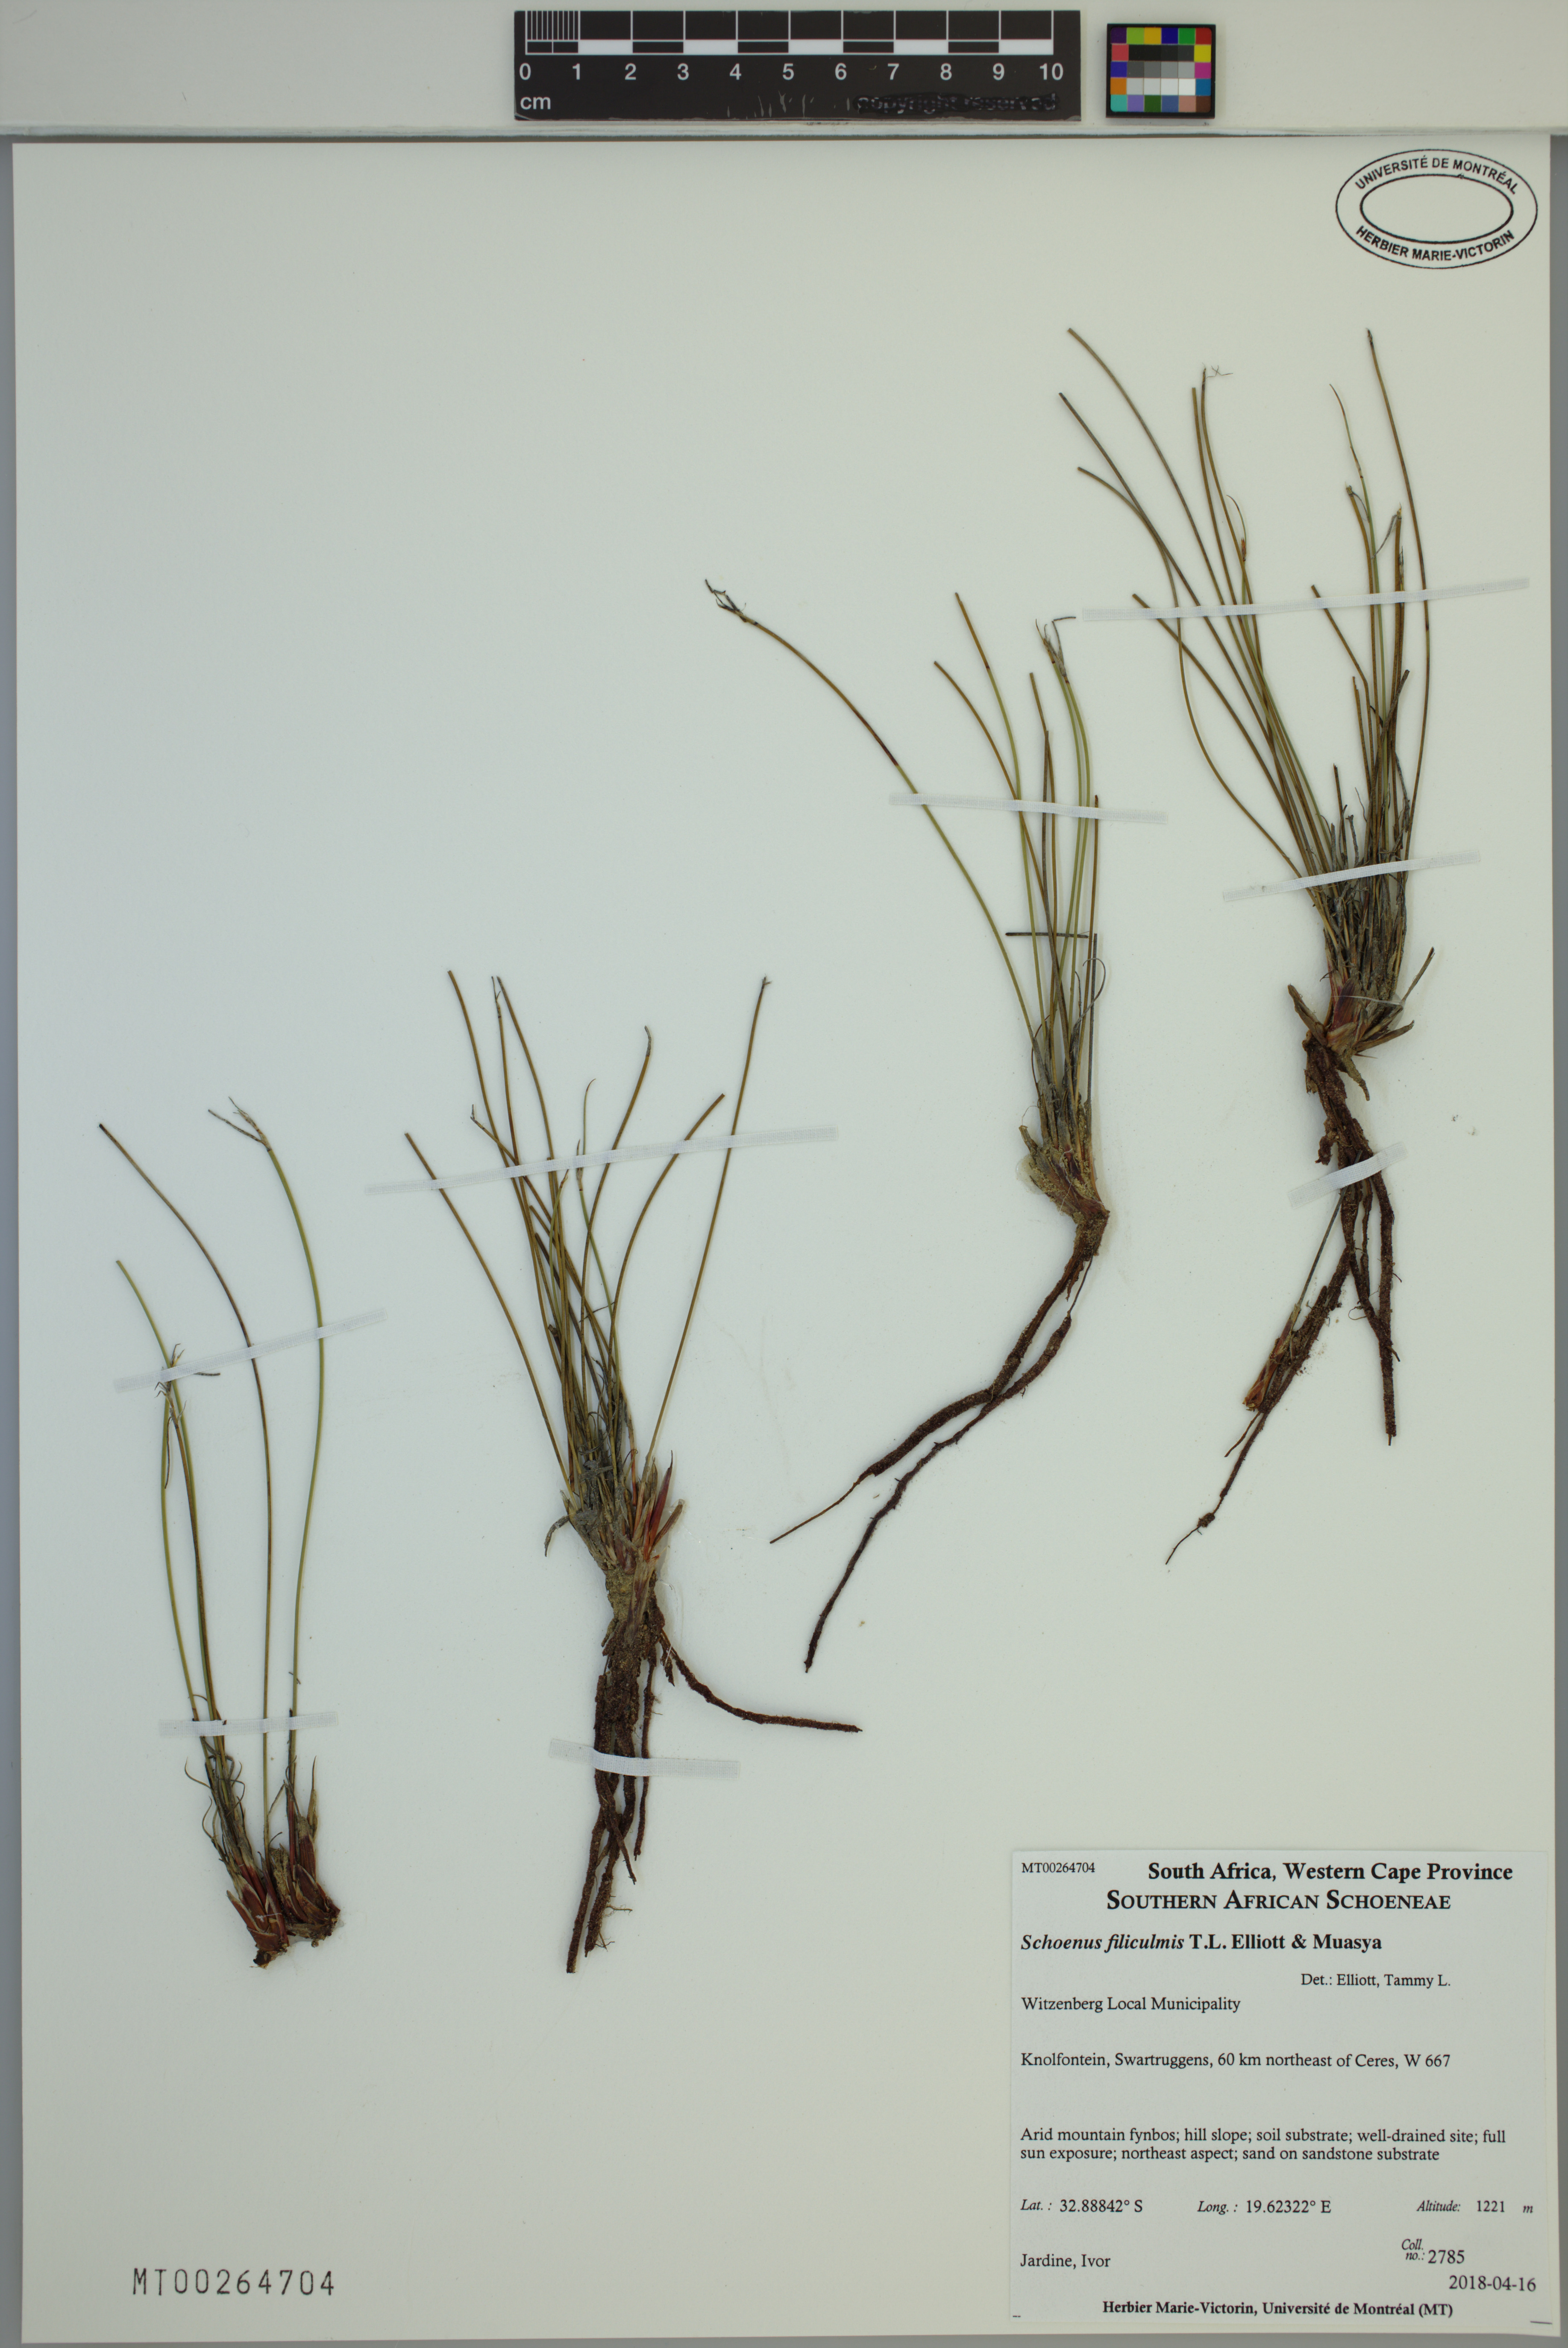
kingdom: Plantae
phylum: Tracheophyta
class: Liliopsida
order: Poales
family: Cyperaceae
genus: Schoenus
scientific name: Schoenus filiculmis
